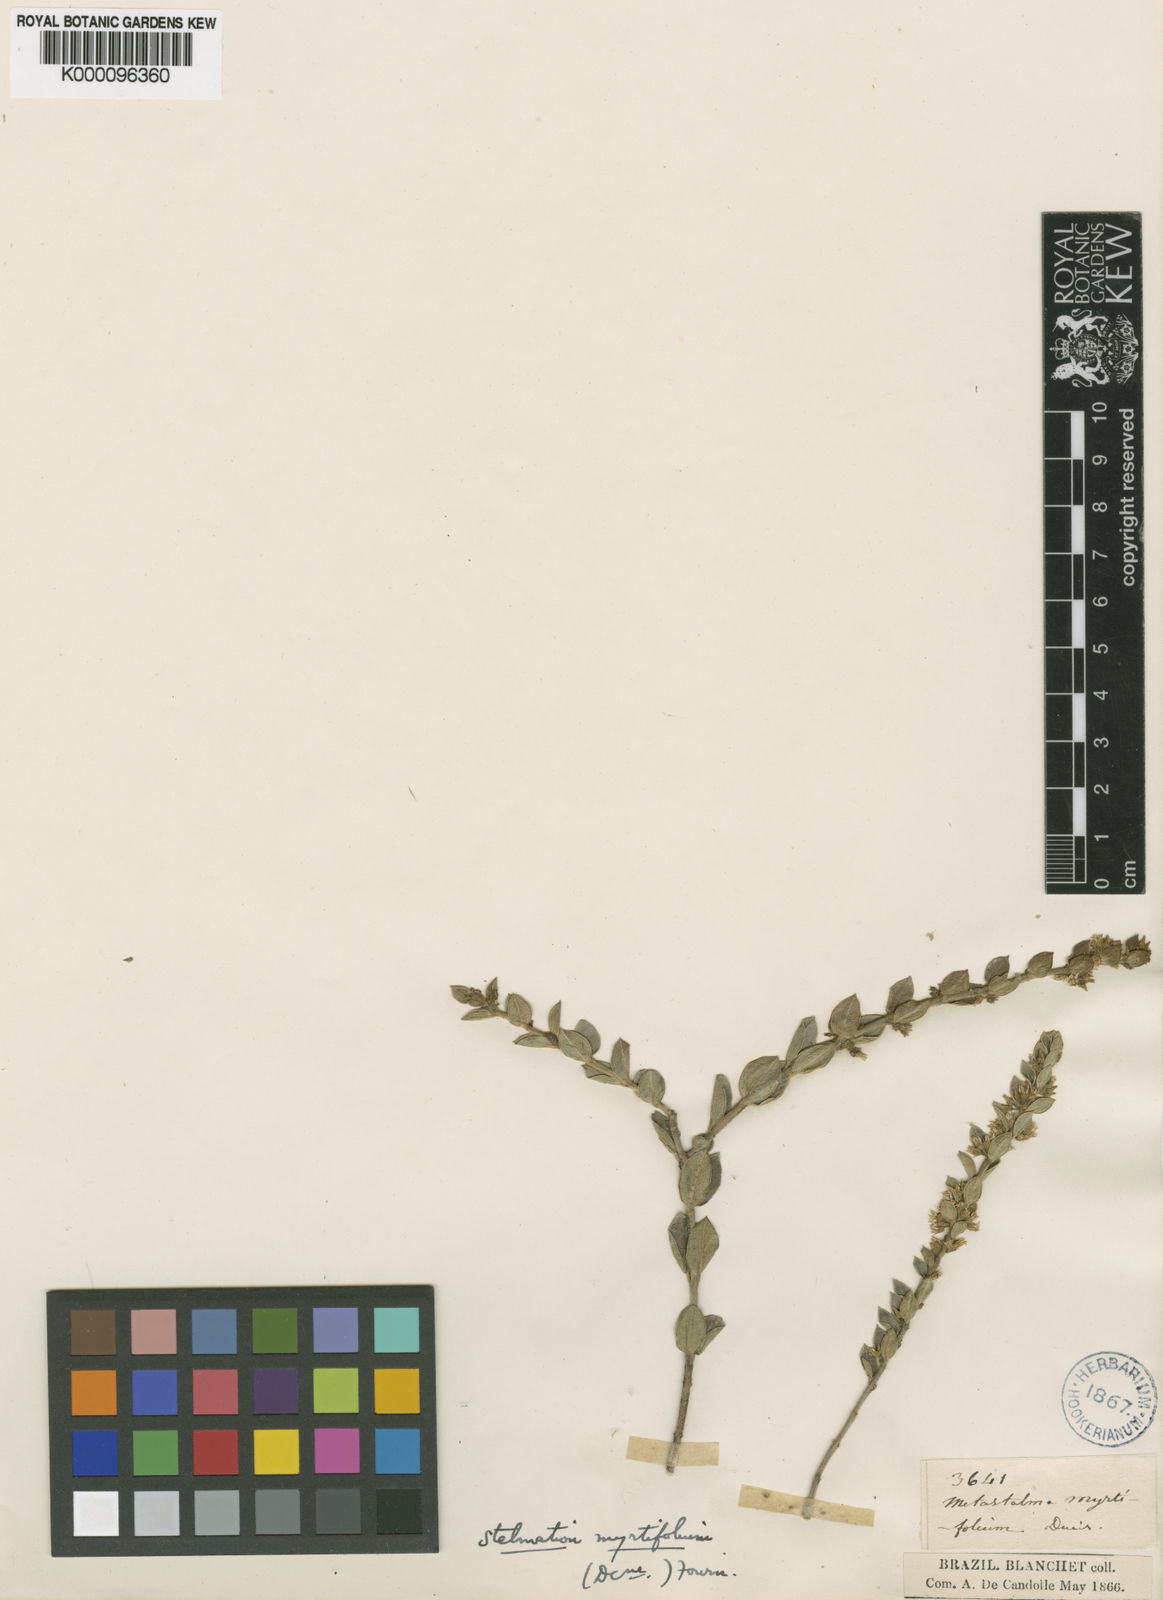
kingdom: Plantae
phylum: Tracheophyta
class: Magnoliopsida
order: Gentianales
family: Apocynaceae
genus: Metastelma
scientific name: Metastelma myrtifolium
